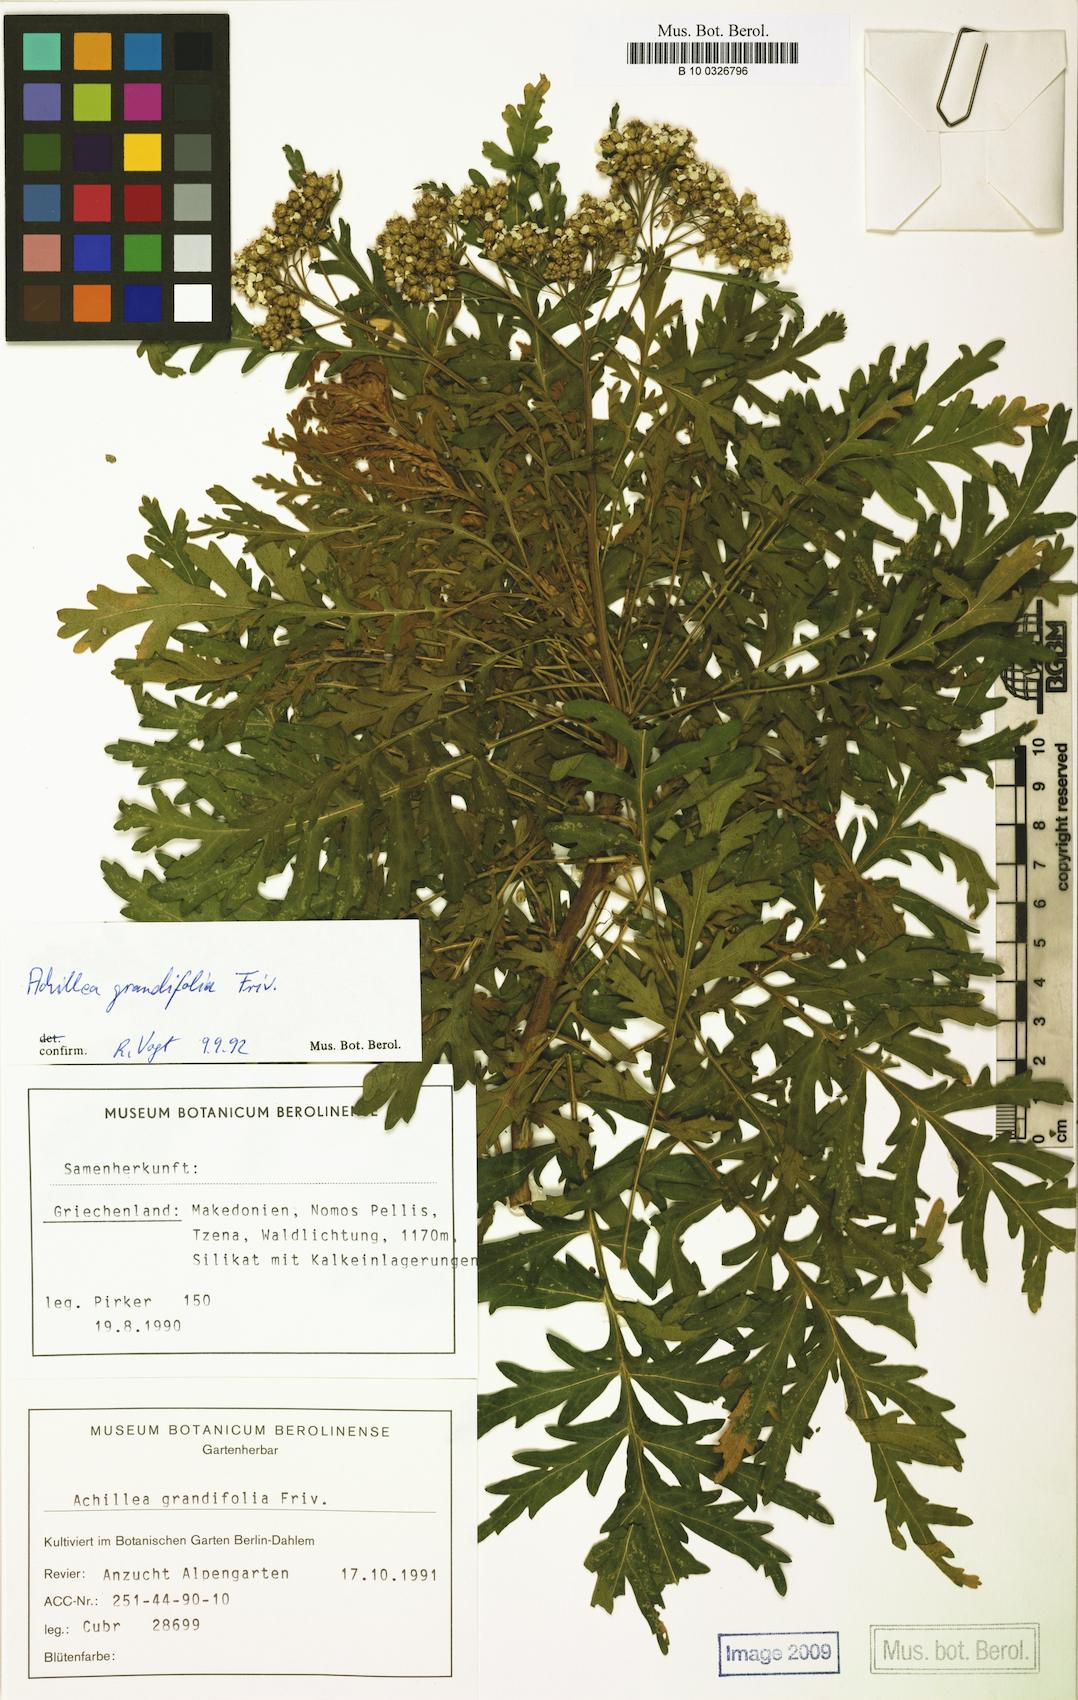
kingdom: Plantae
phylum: Tracheophyta
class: Magnoliopsida
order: Asterales
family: Asteraceae
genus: Achillea
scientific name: Achillea grandifolia
